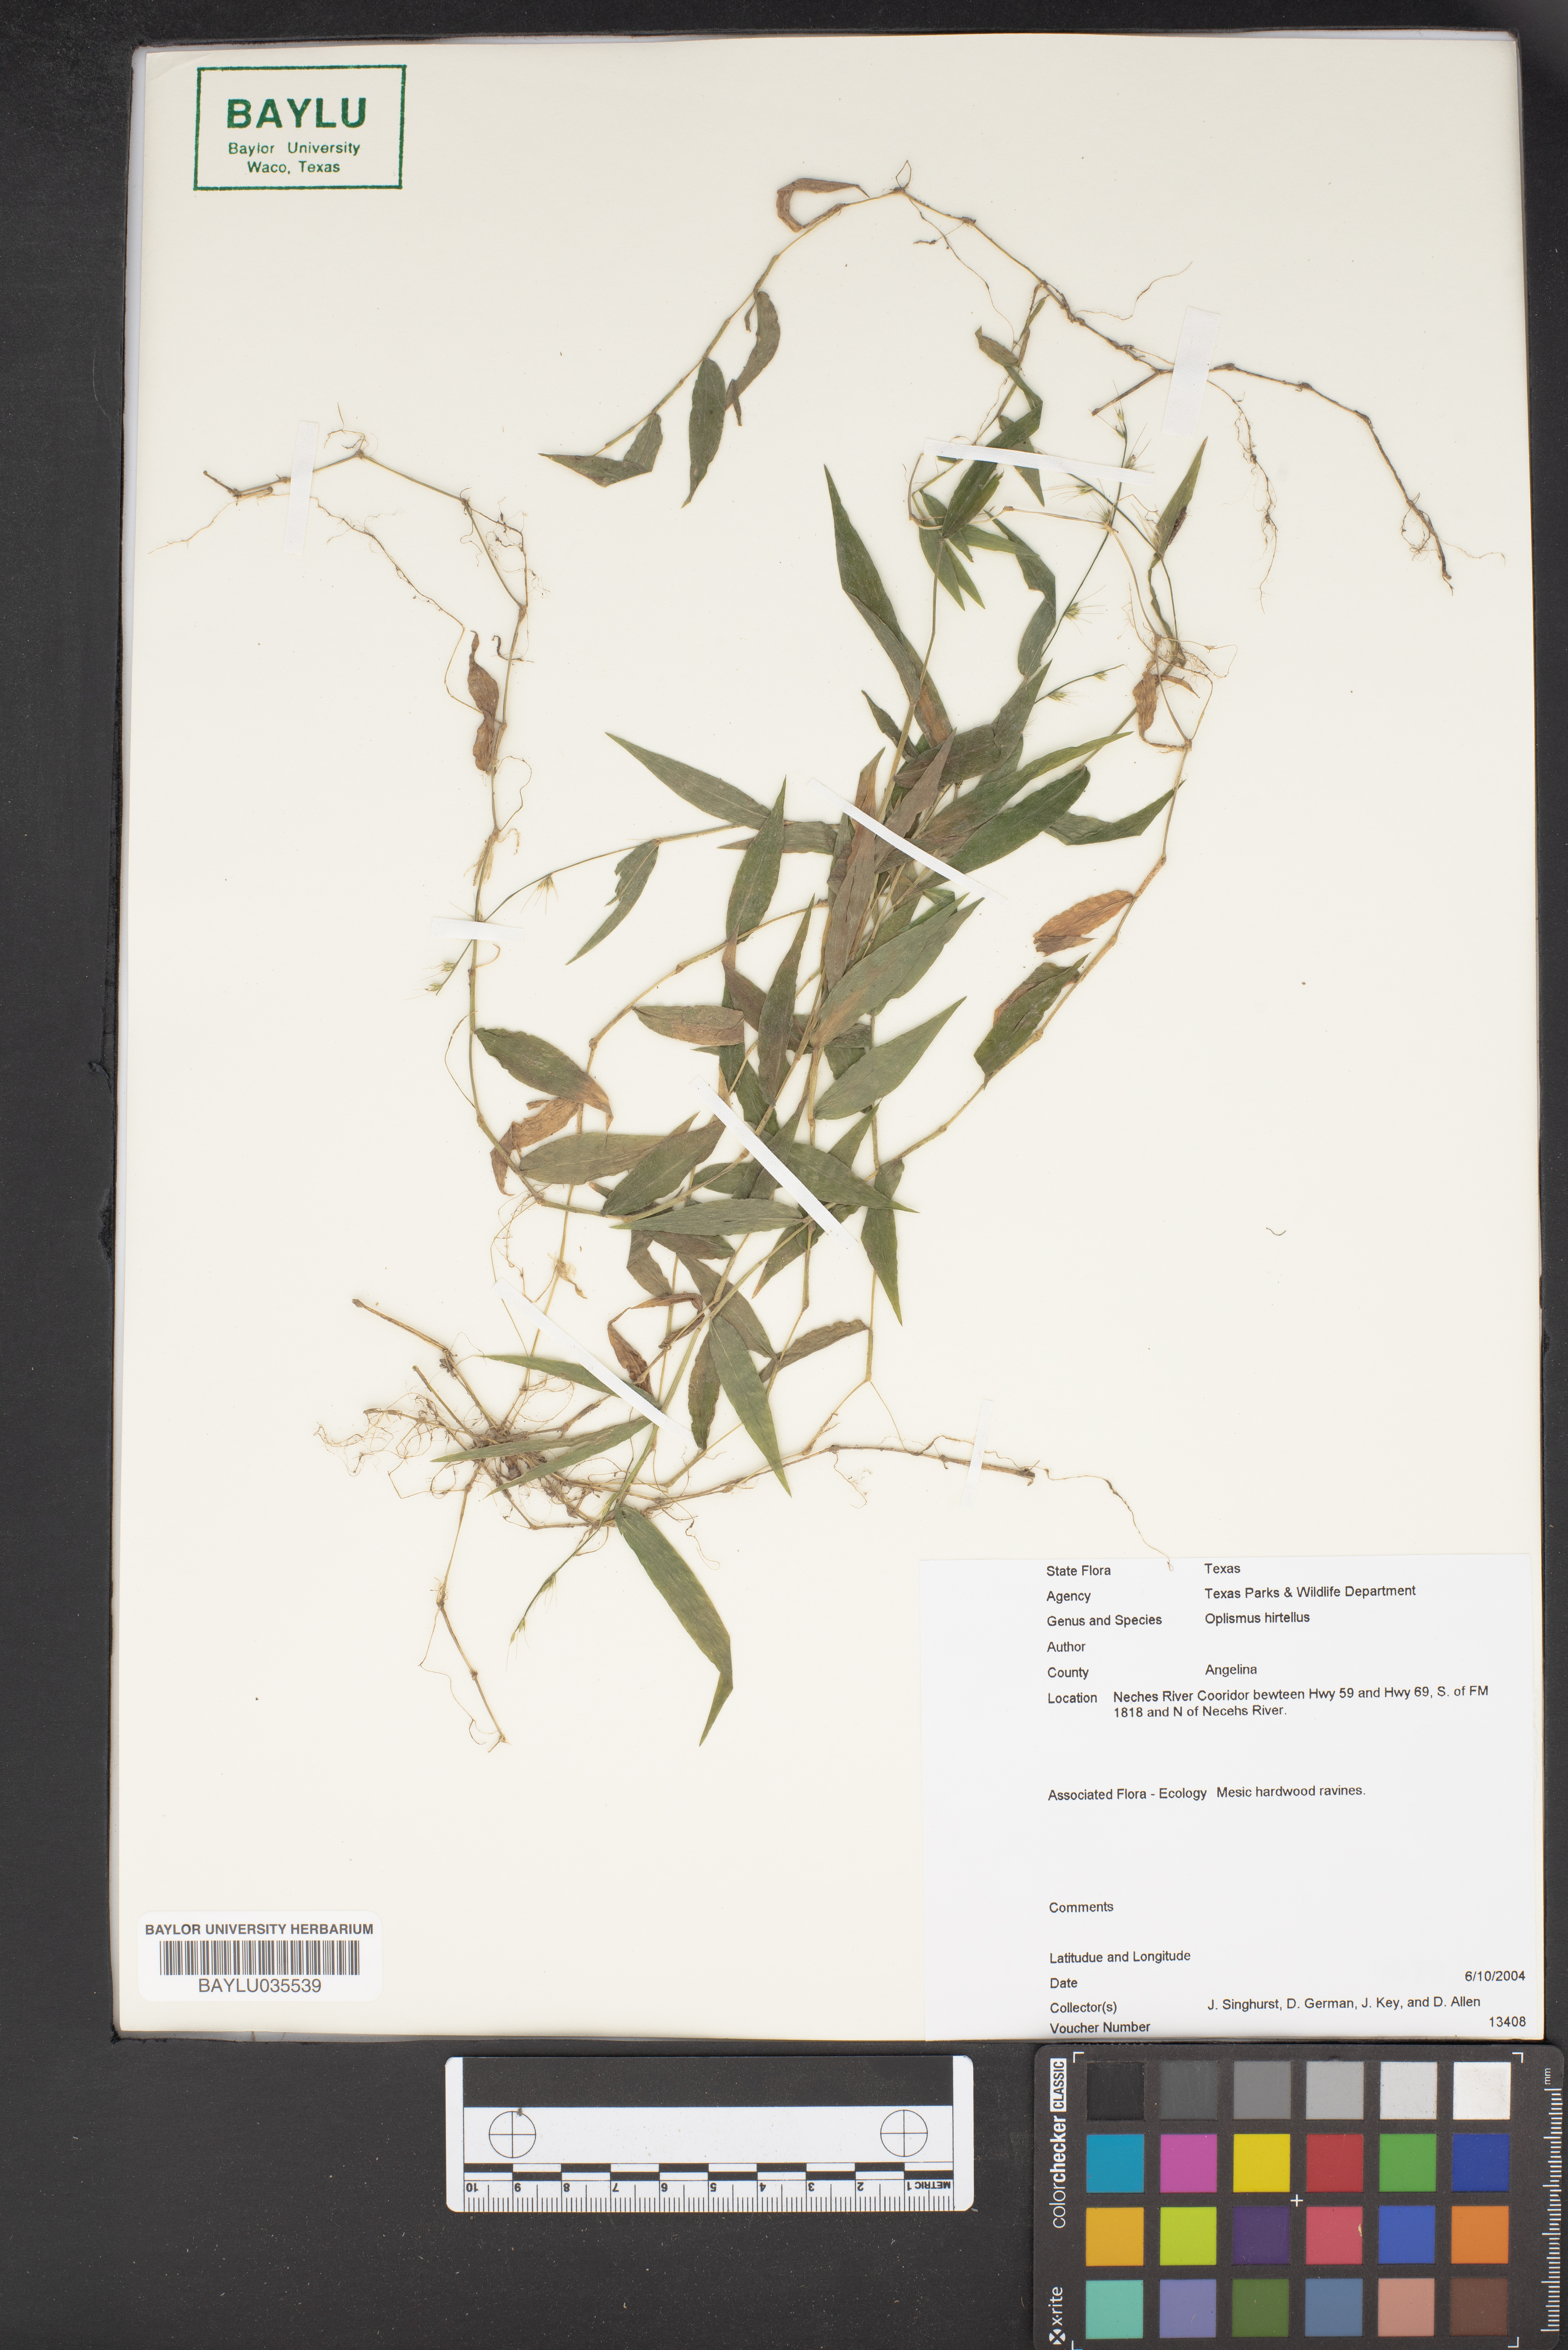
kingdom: Plantae
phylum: Tracheophyta
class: Liliopsida
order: Poales
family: Poaceae
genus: Oplismenus
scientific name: Oplismenus hirtellus
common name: Basketgrass
